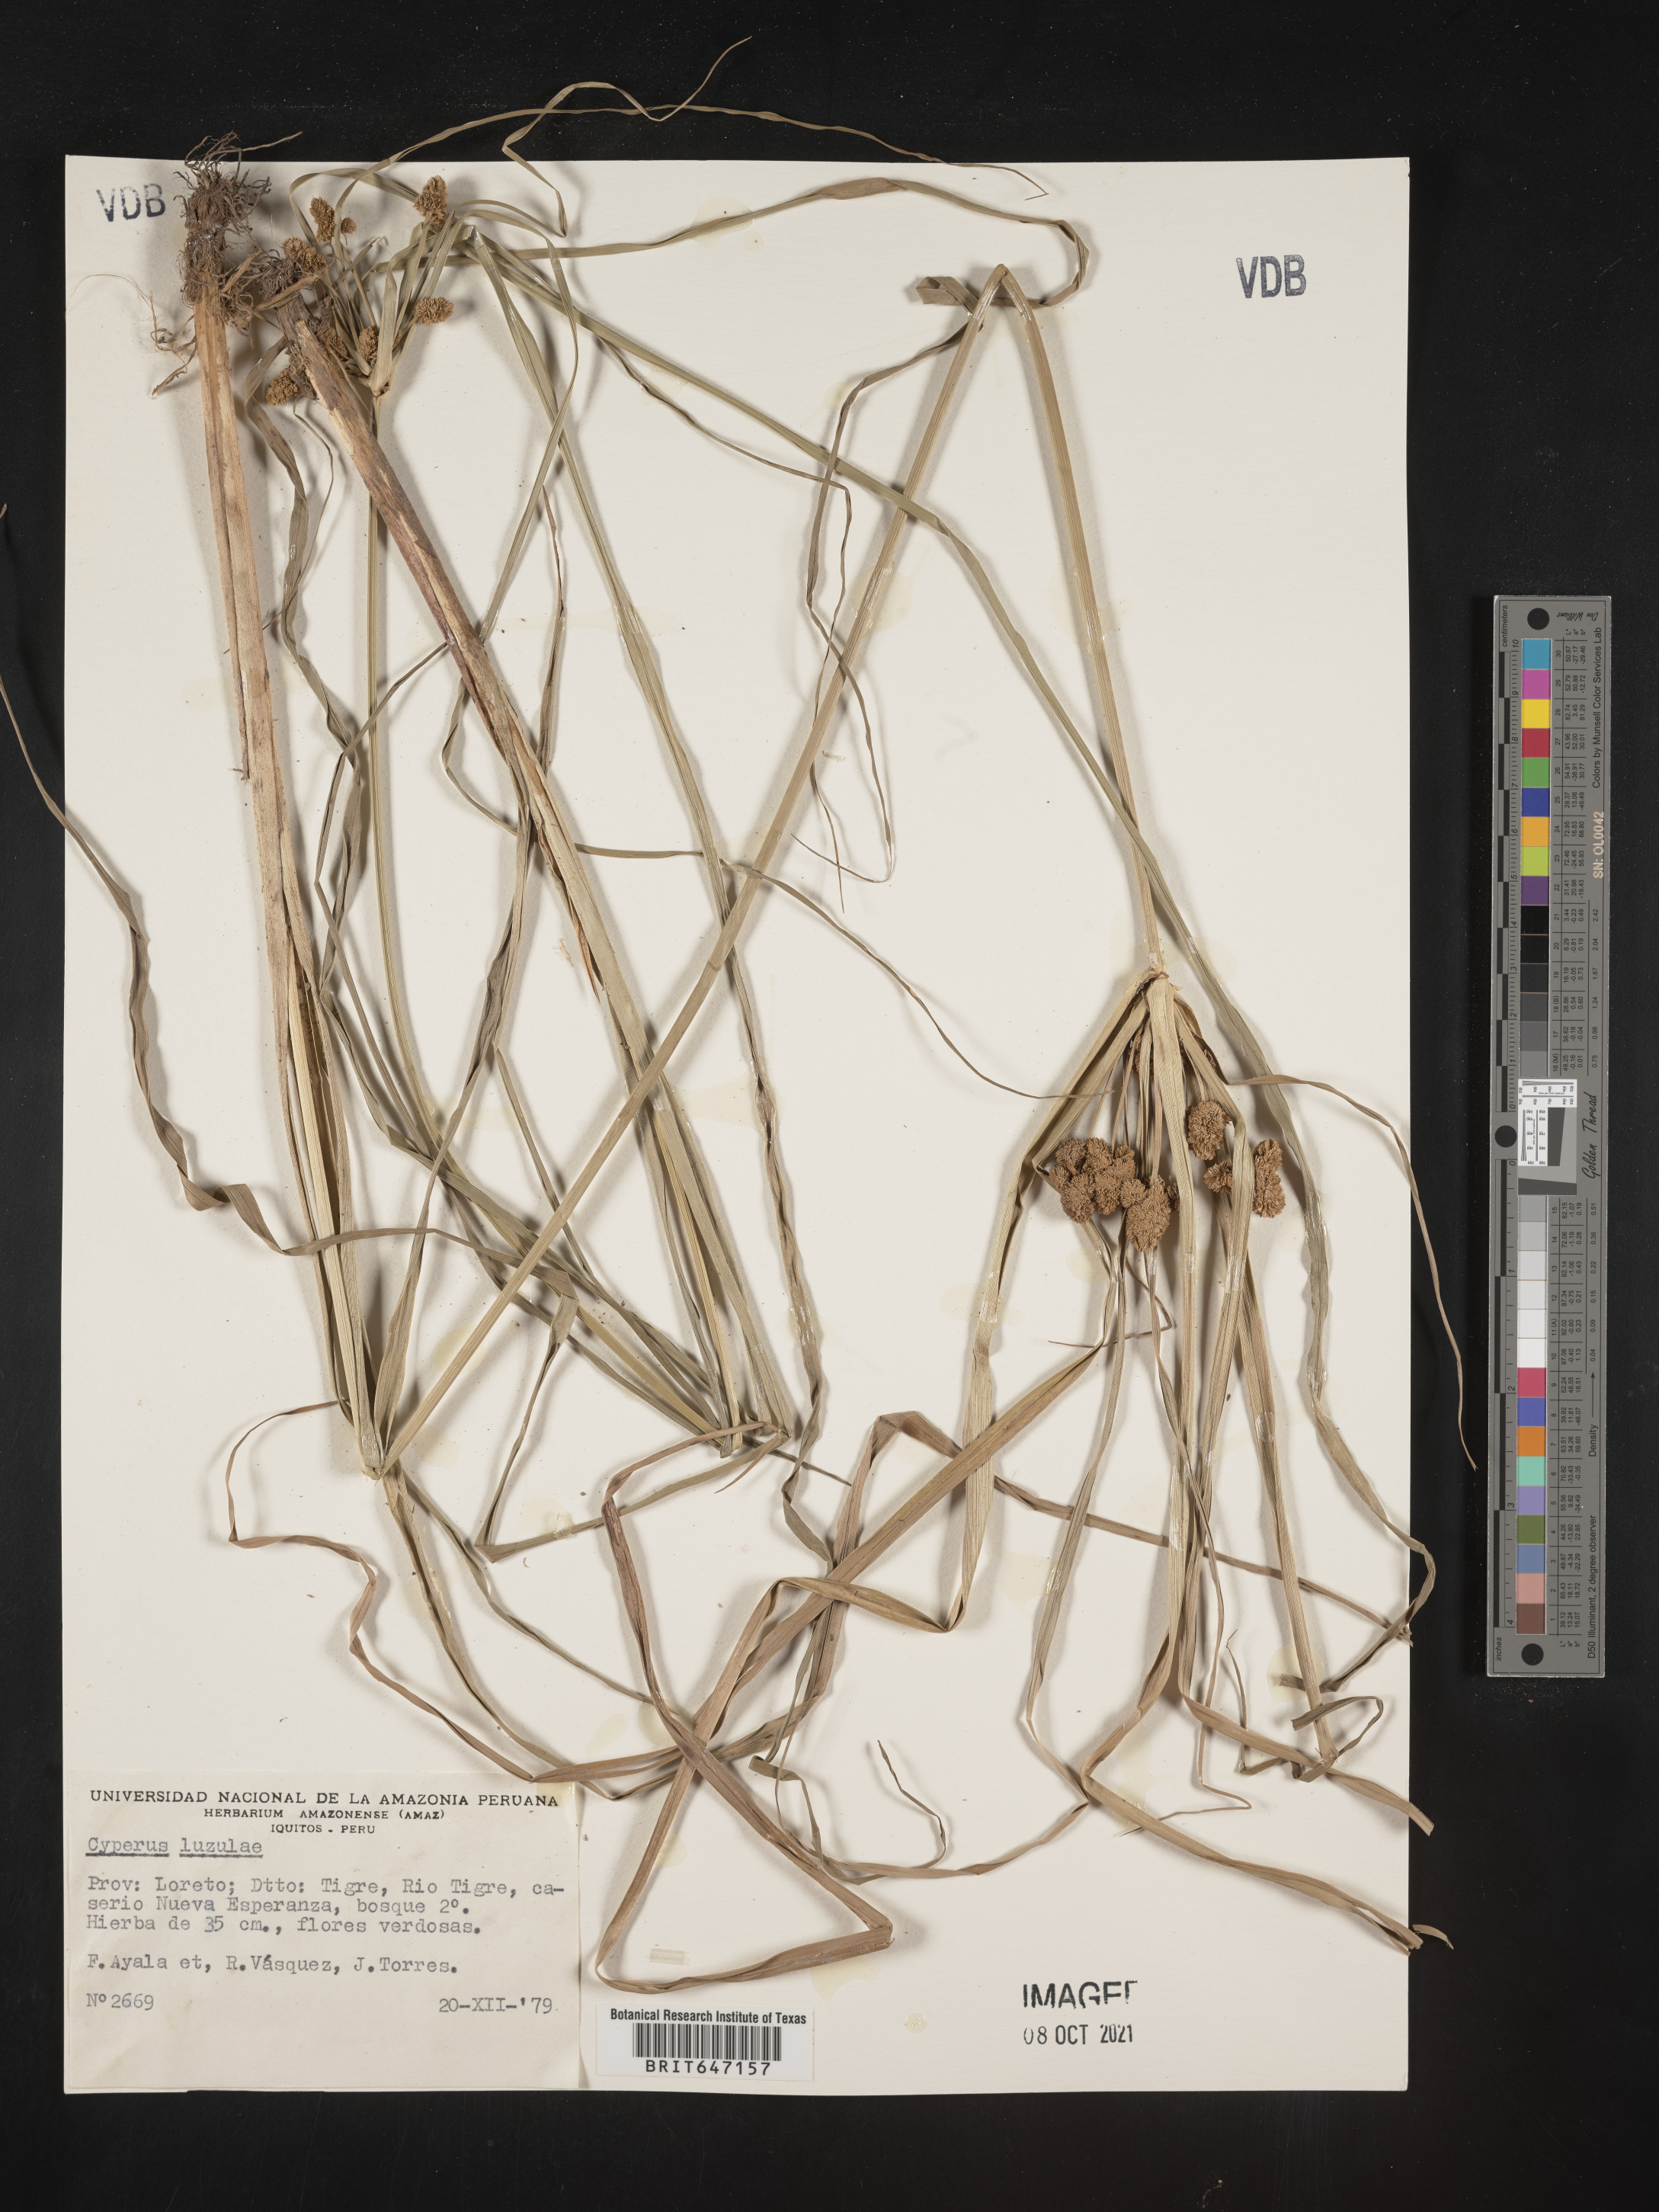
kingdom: Plantae
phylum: Tracheophyta
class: Liliopsida
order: Poales
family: Cyperaceae
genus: Cyperus
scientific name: Cyperus luzulae
